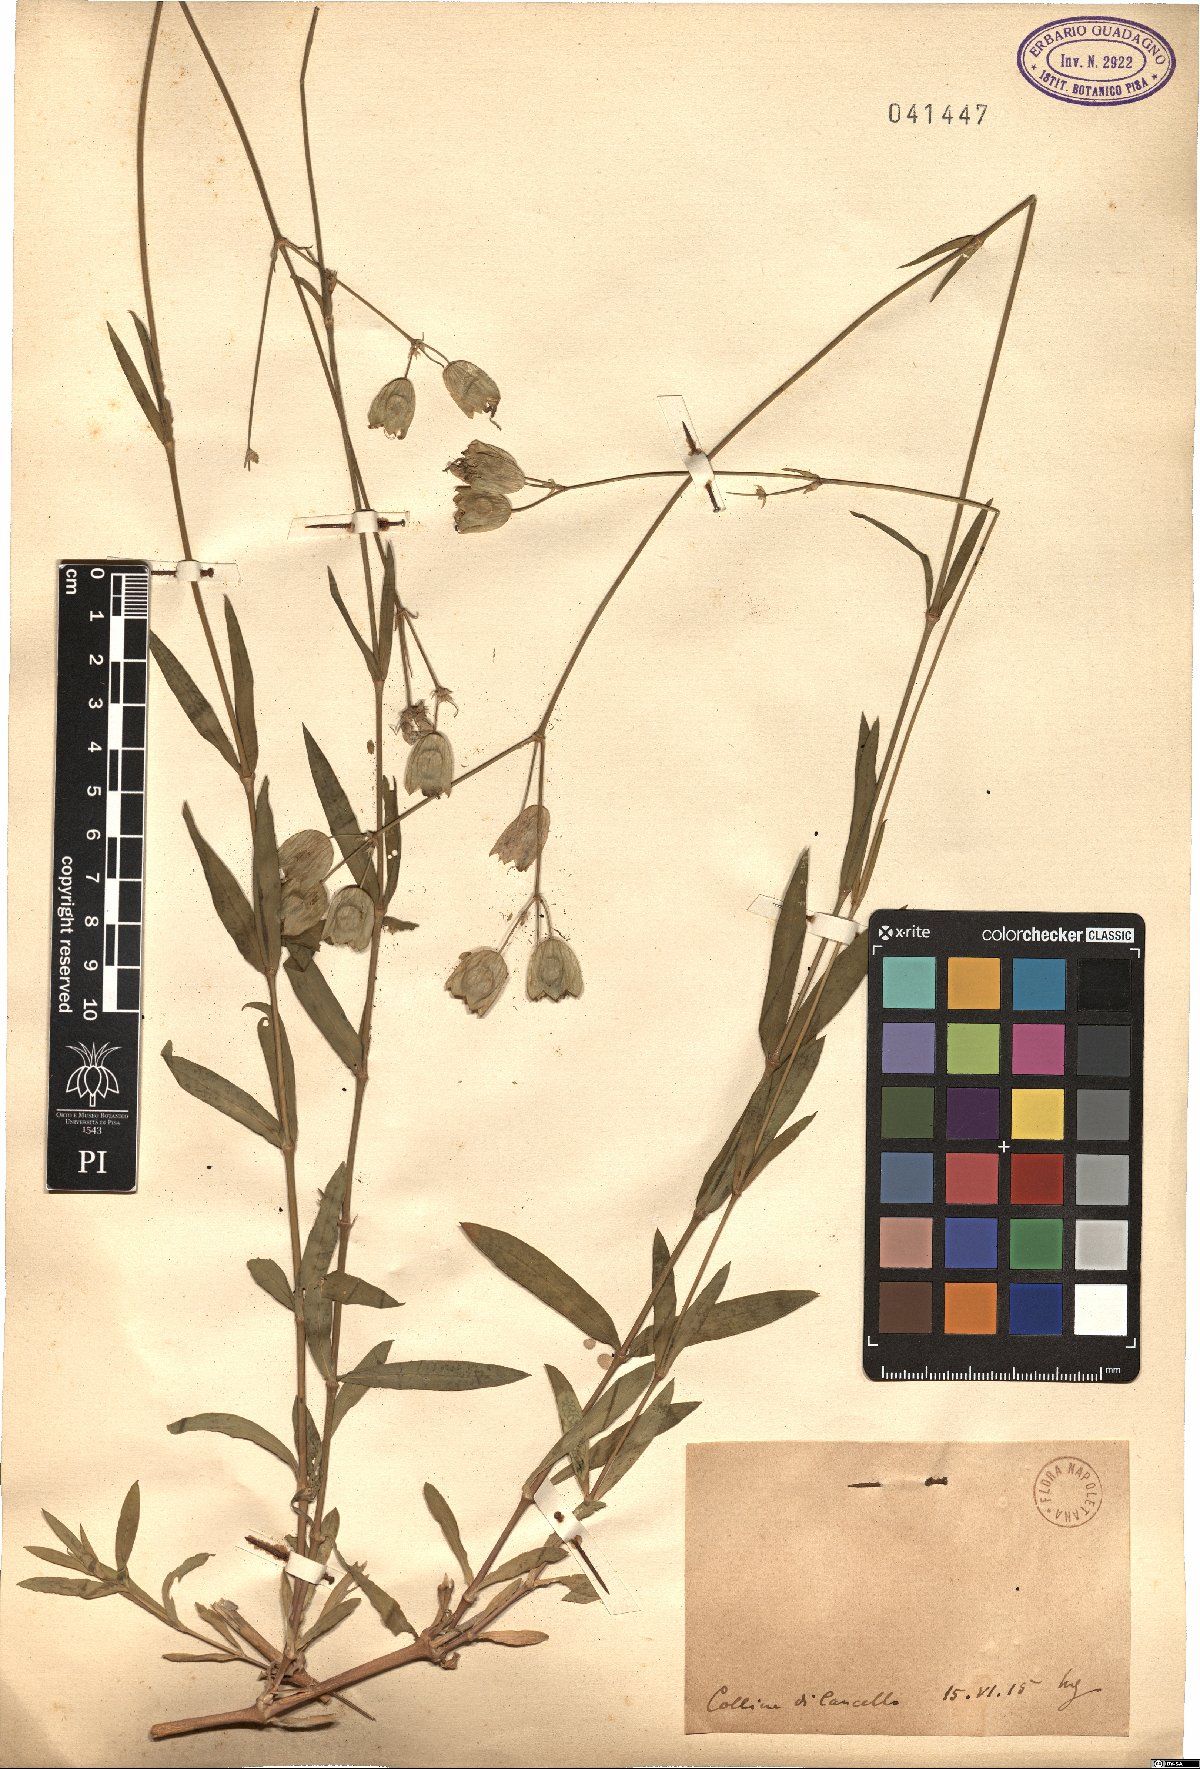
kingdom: Plantae
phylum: Tracheophyta
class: Magnoliopsida
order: Caryophyllales
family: Caryophyllaceae
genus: Silene
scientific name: Silene
